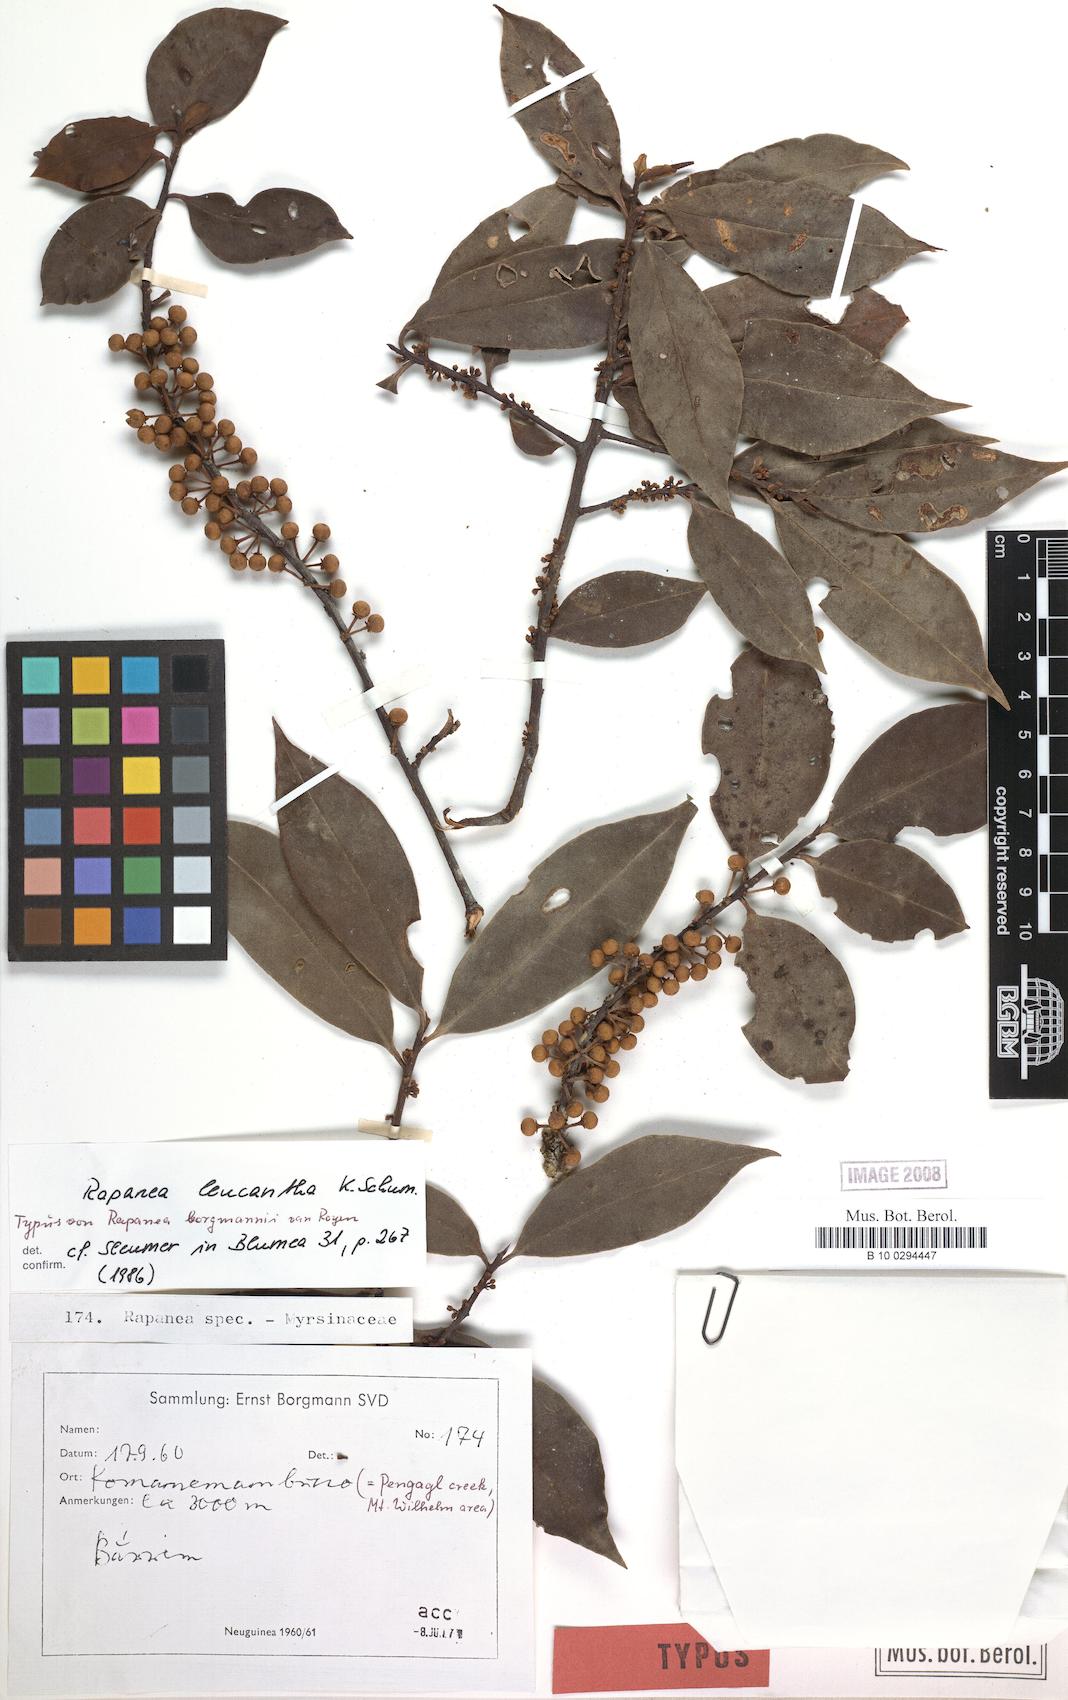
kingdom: Plantae
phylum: Tracheophyta
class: Magnoliopsida
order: Ericales
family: Primulaceae
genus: Myrsine
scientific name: Myrsine leucantha
